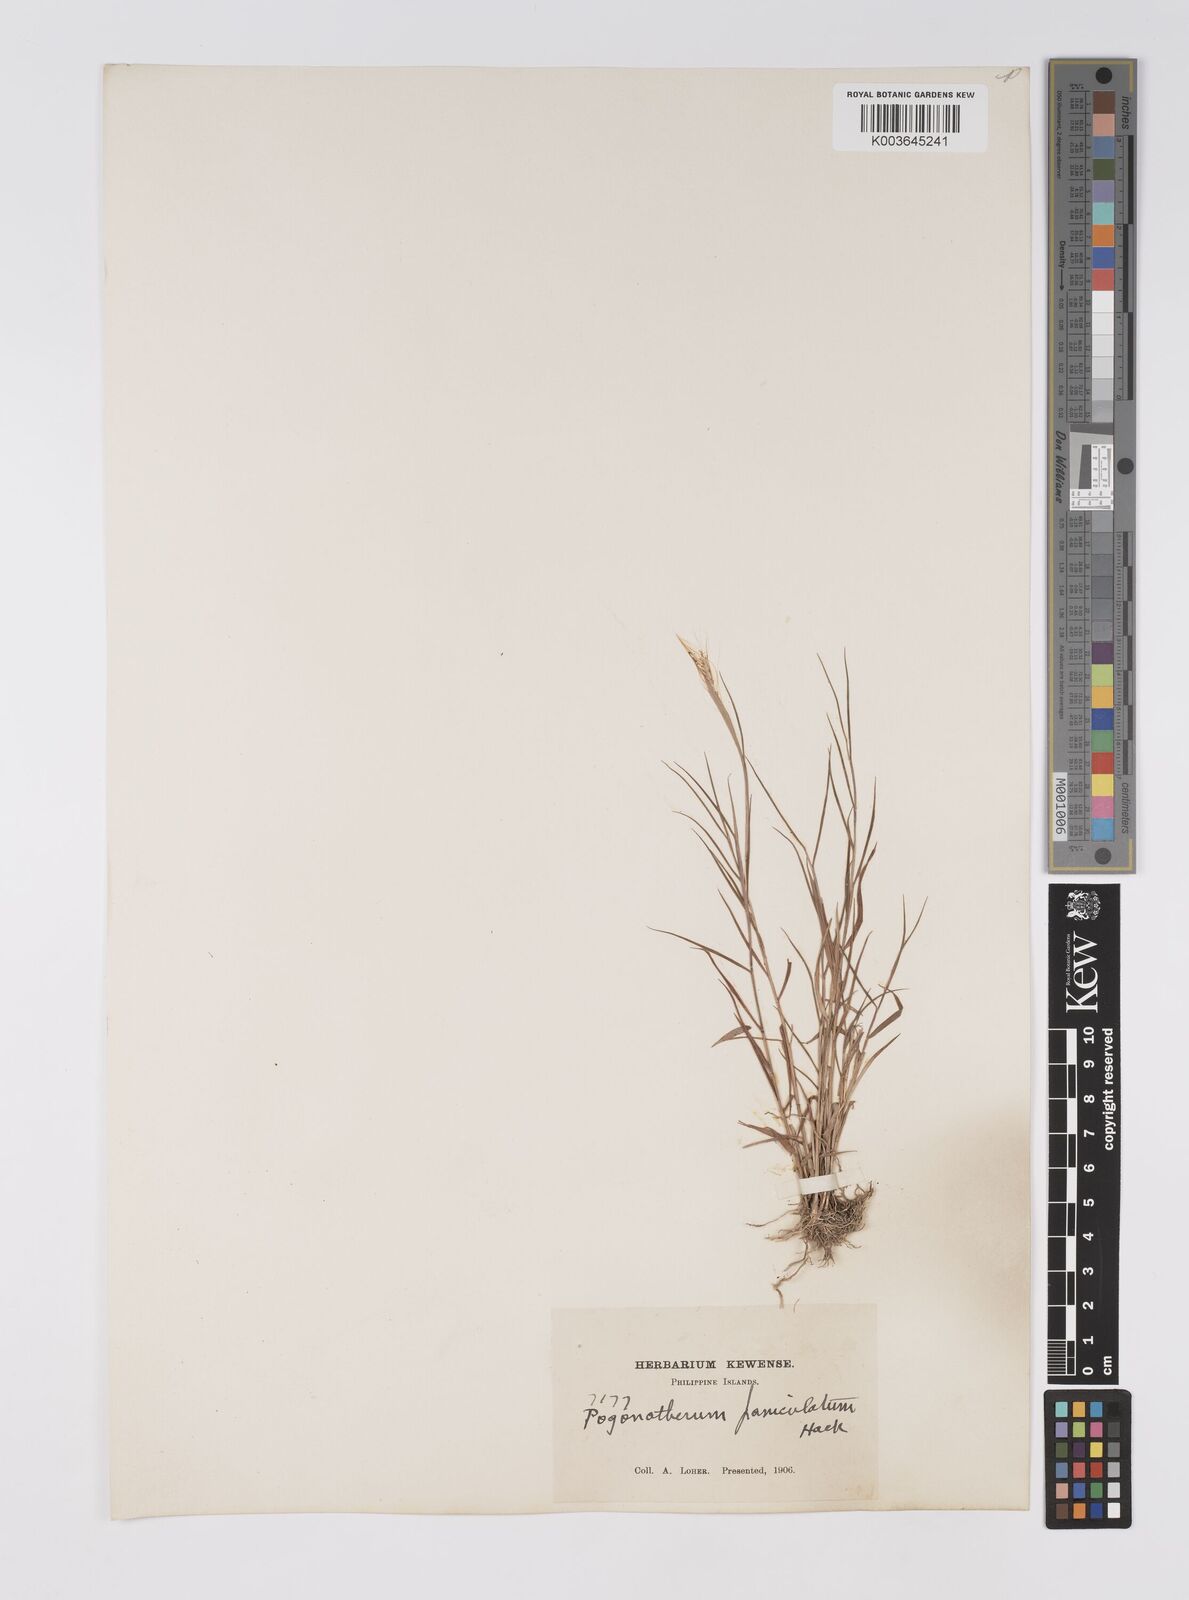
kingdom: Plantae
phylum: Tracheophyta
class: Liliopsida
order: Poales
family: Poaceae
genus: Pogonatherum
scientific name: Pogonatherum crinitum
